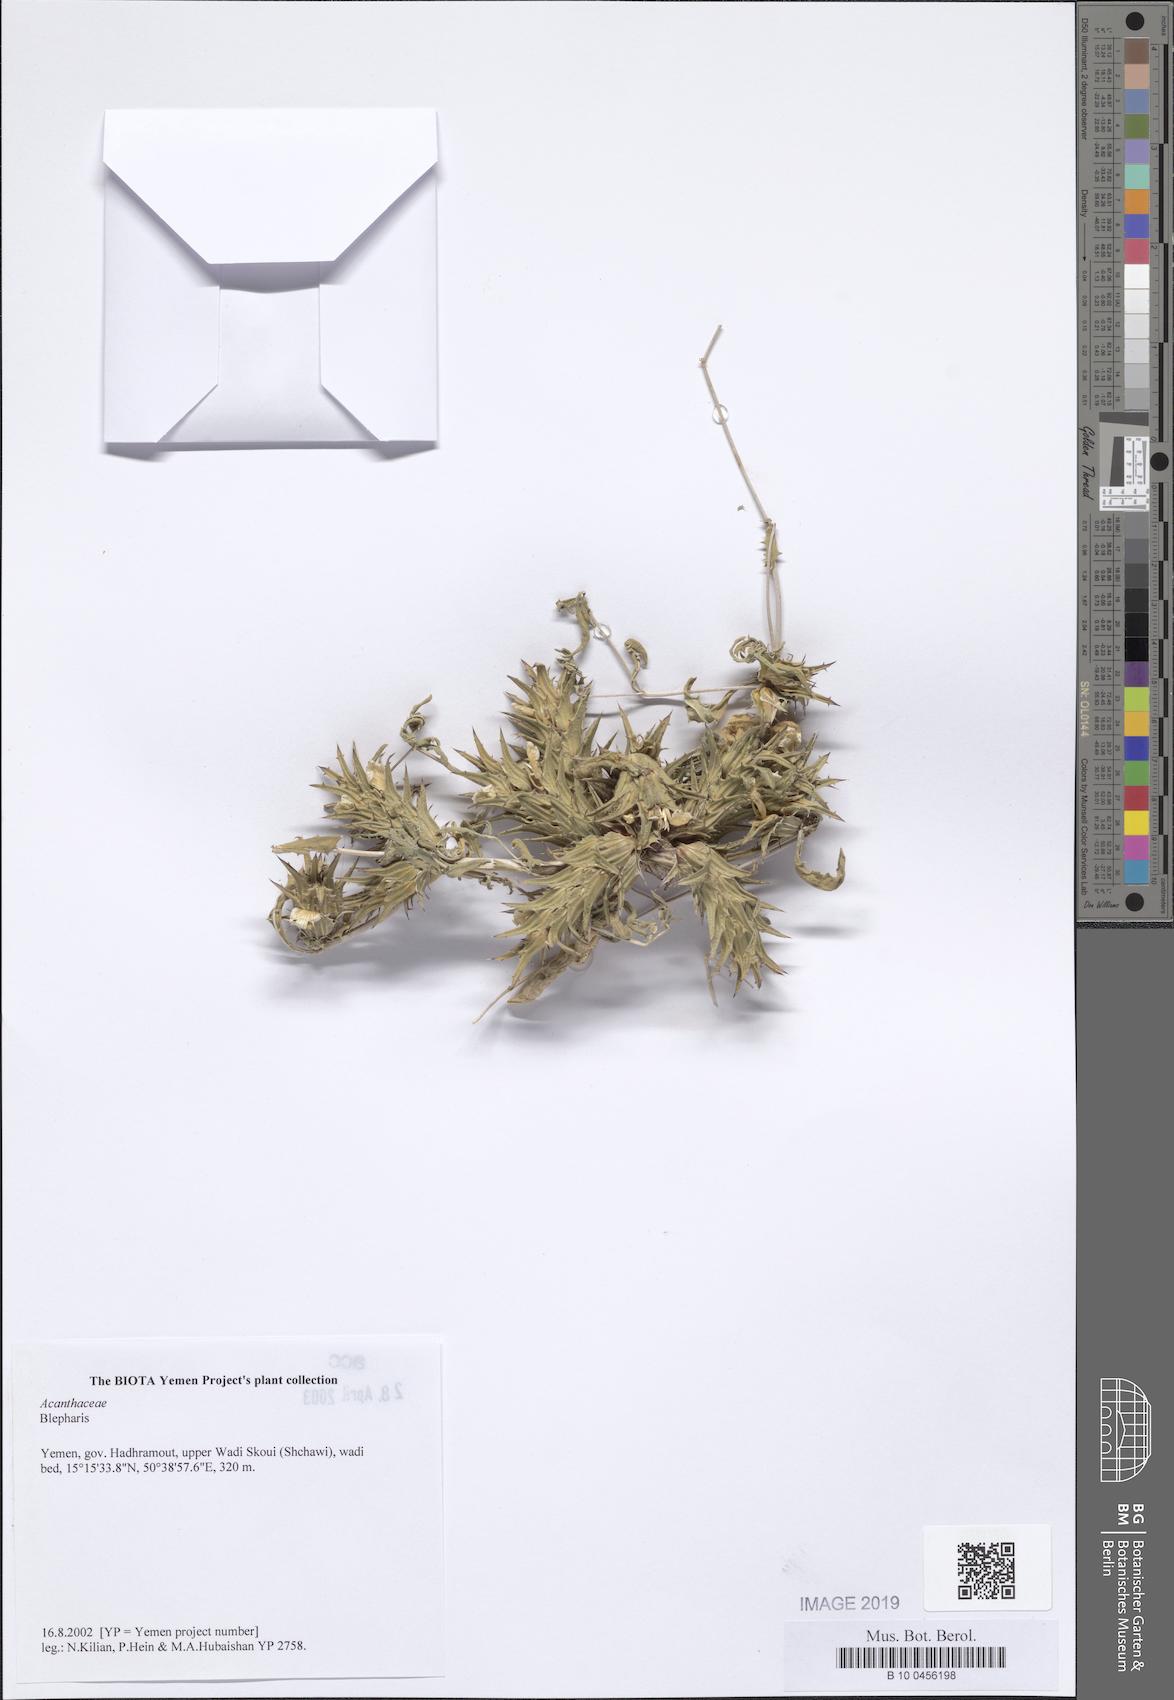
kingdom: Plantae
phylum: Tracheophyta
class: Magnoliopsida
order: Lamiales
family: Acanthaceae
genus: Blepharis
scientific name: Blepharis
